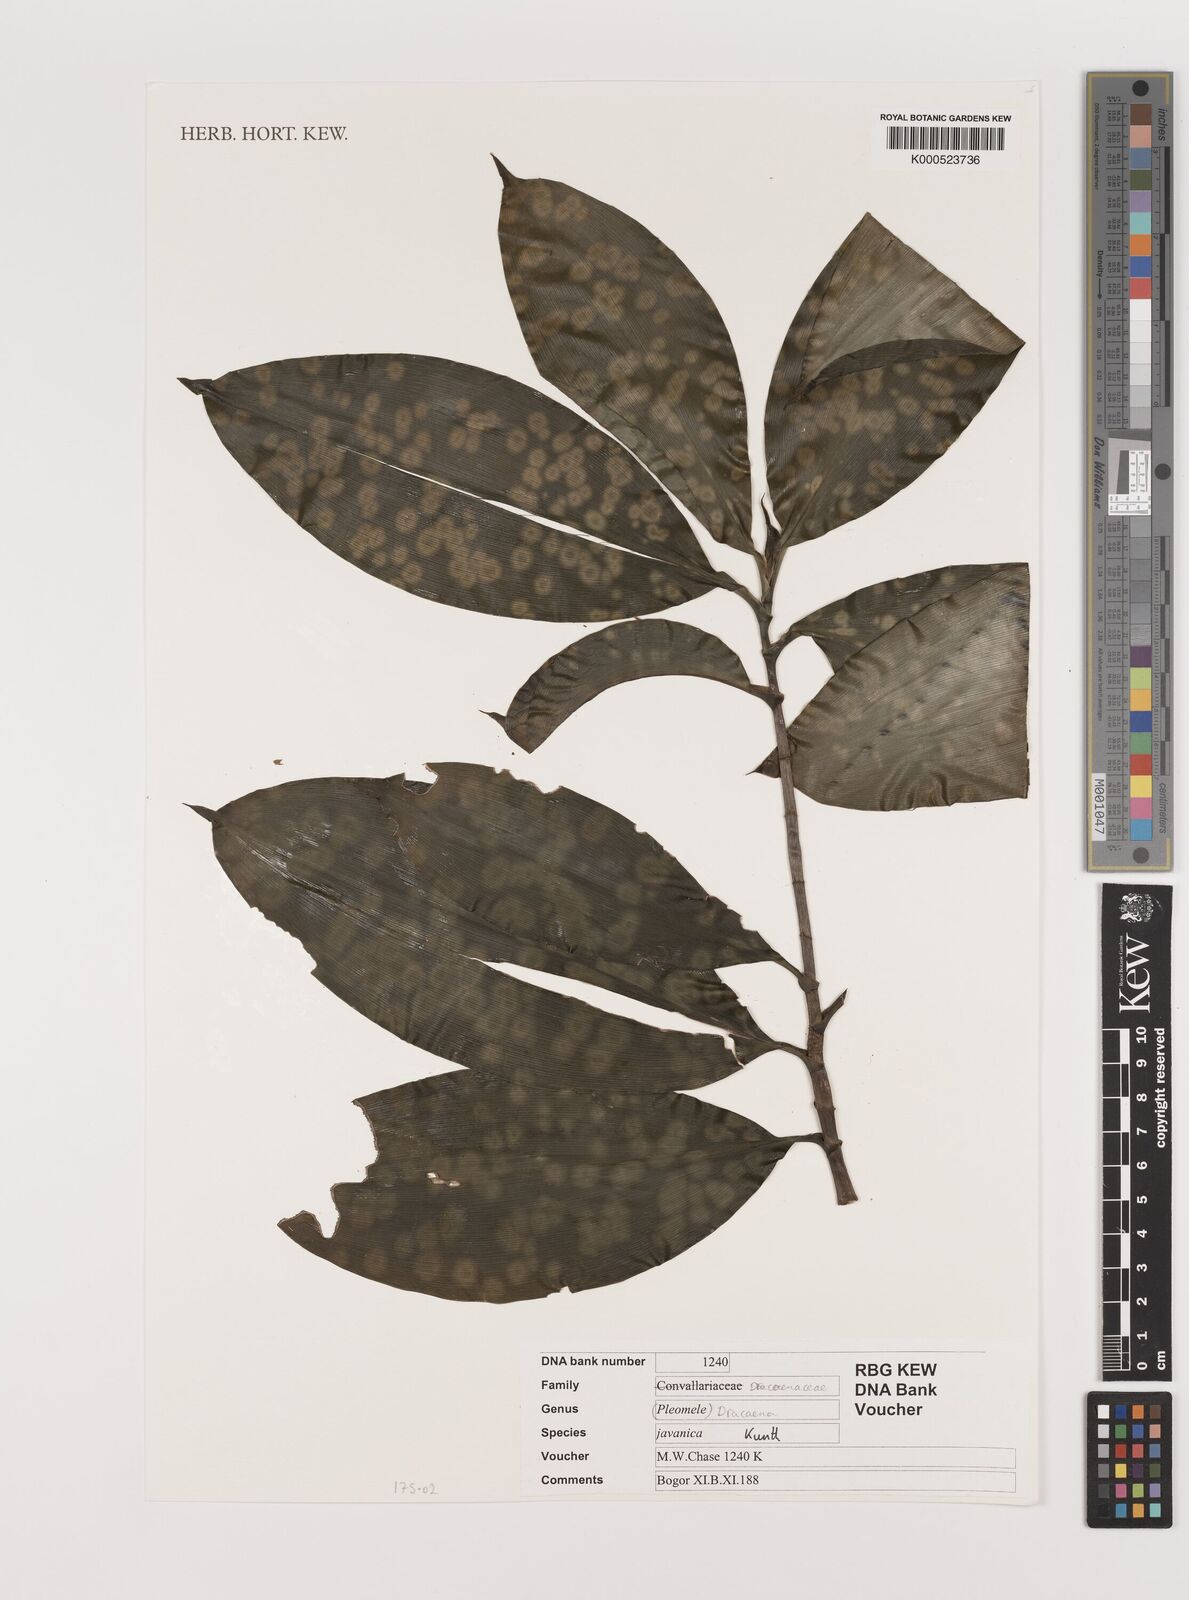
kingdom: Plantae
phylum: Tracheophyta
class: Liliopsida
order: Asparagales
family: Asparagaceae
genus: Dracaena
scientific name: Dracaena elliptica
